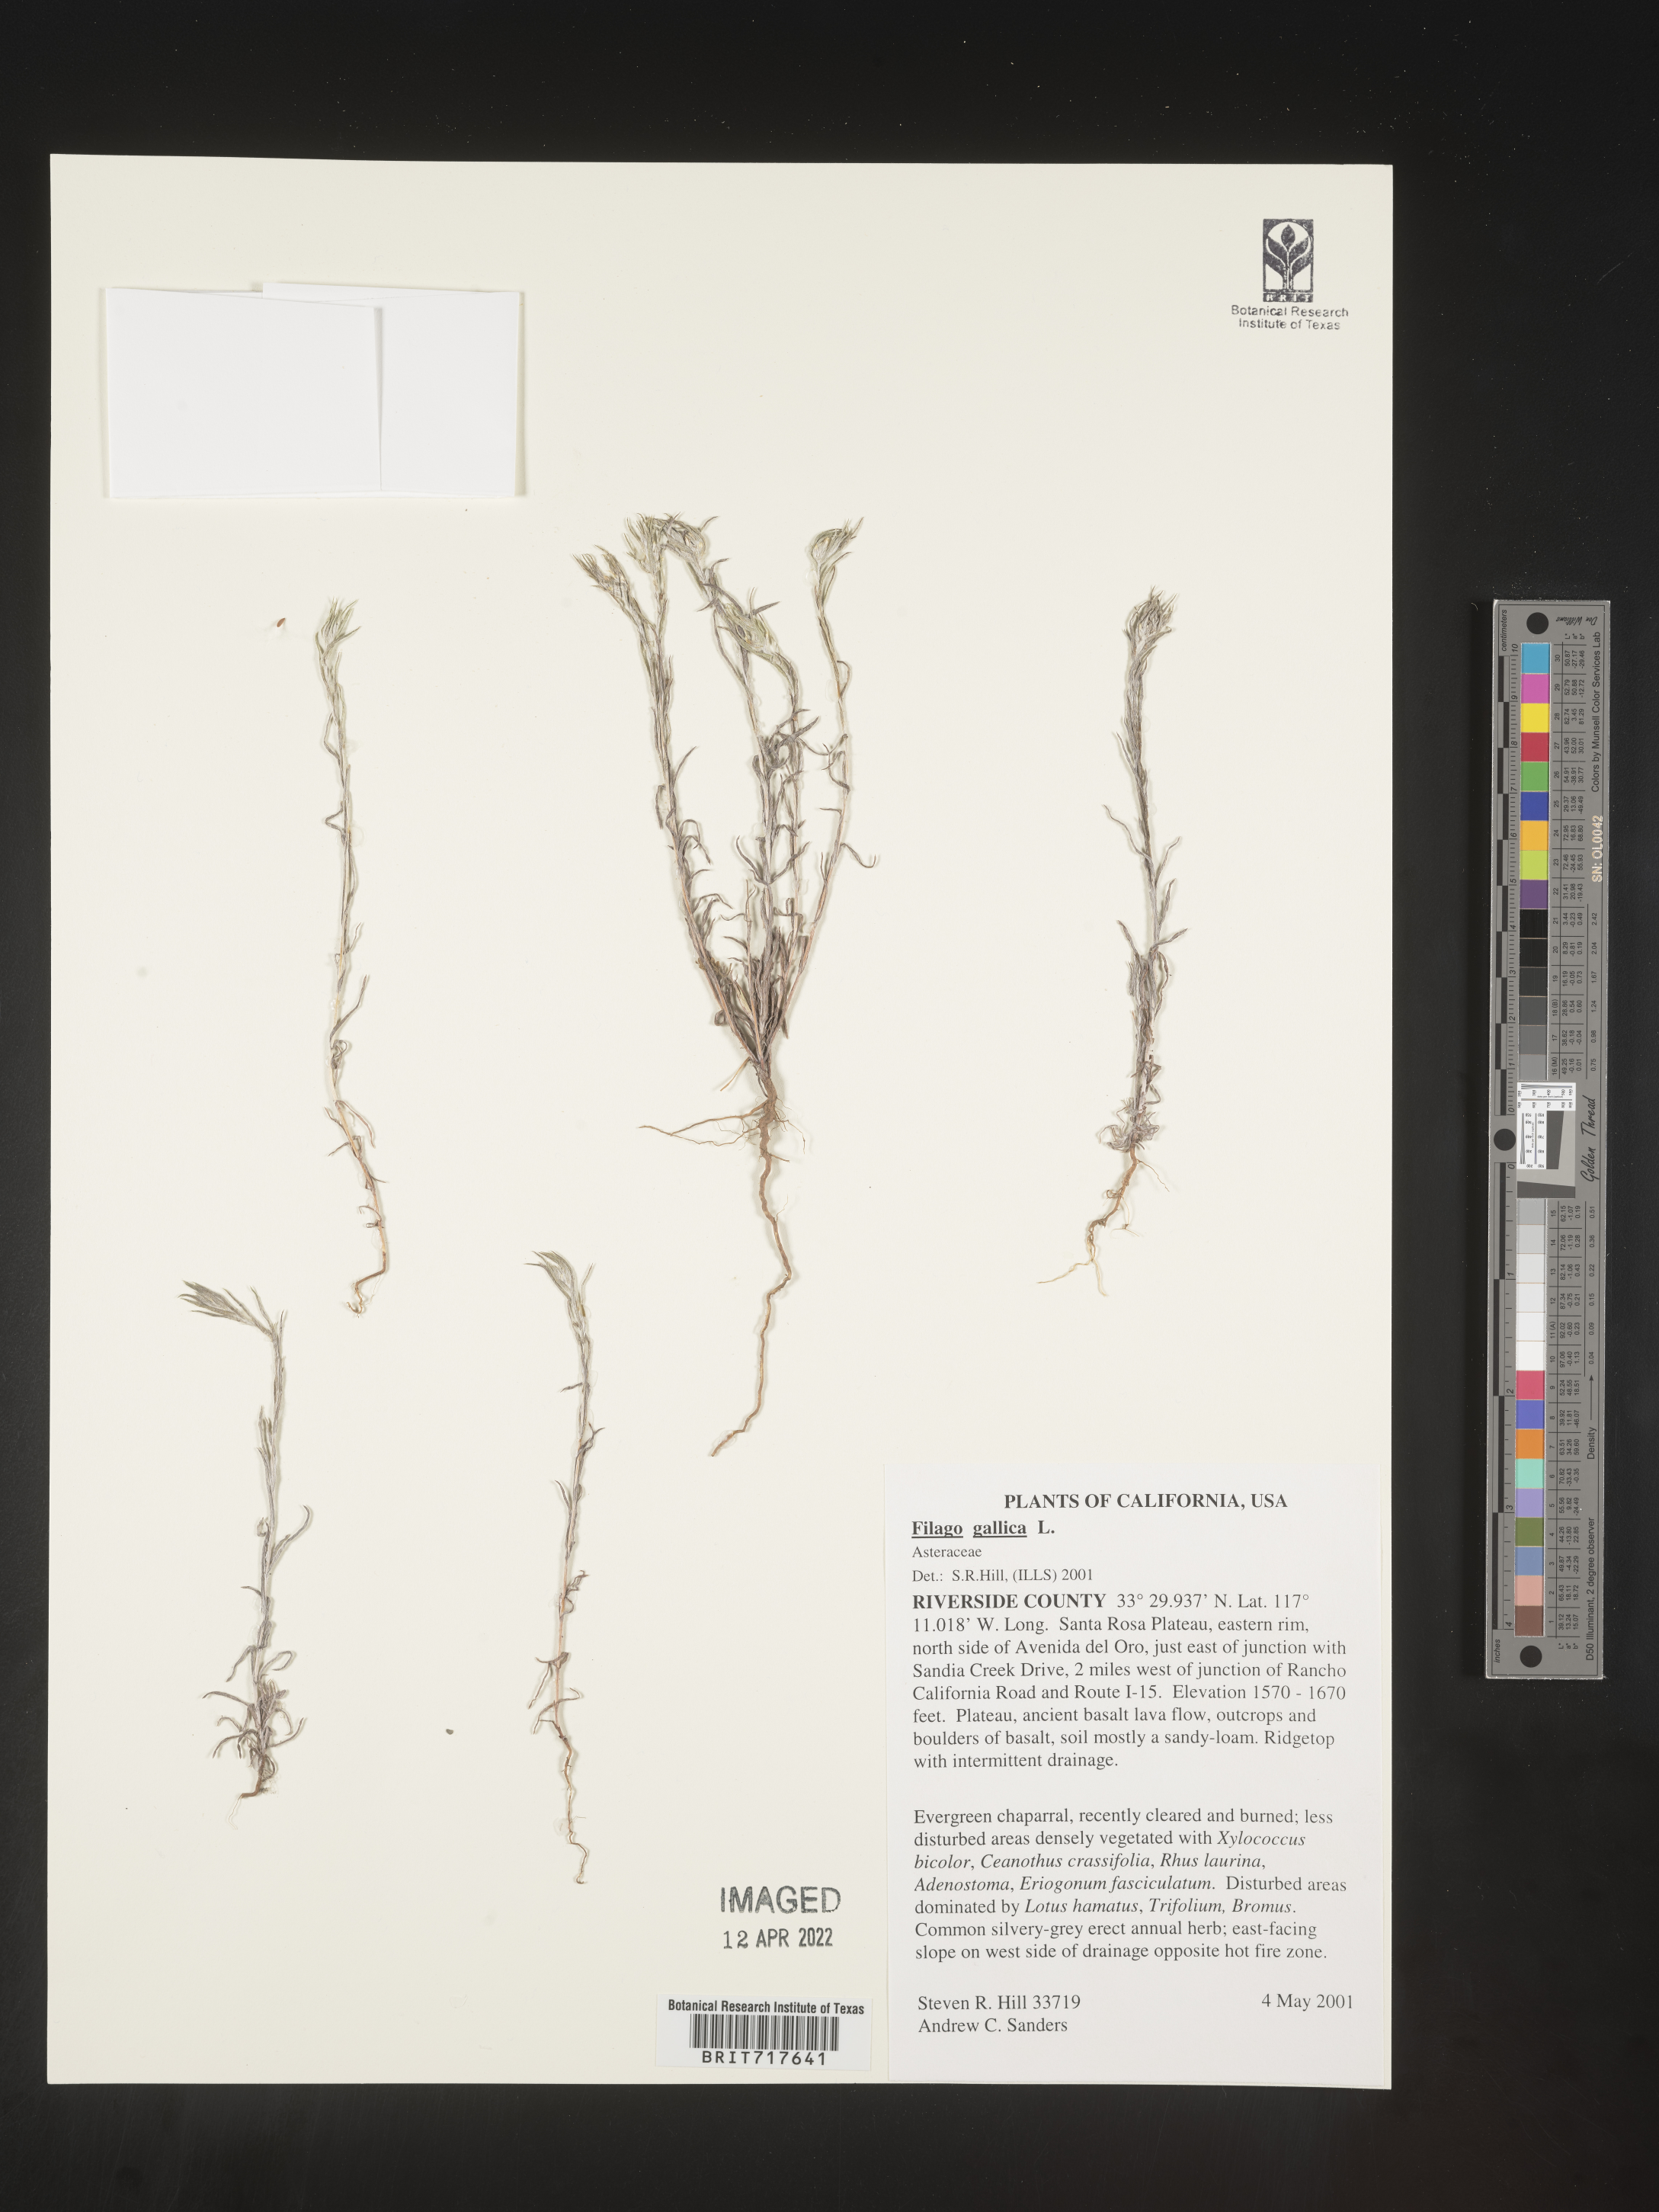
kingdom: Plantae
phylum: Tracheophyta
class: Magnoliopsida
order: Asterales
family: Asteraceae
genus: Logfia
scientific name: Logfia gallica
